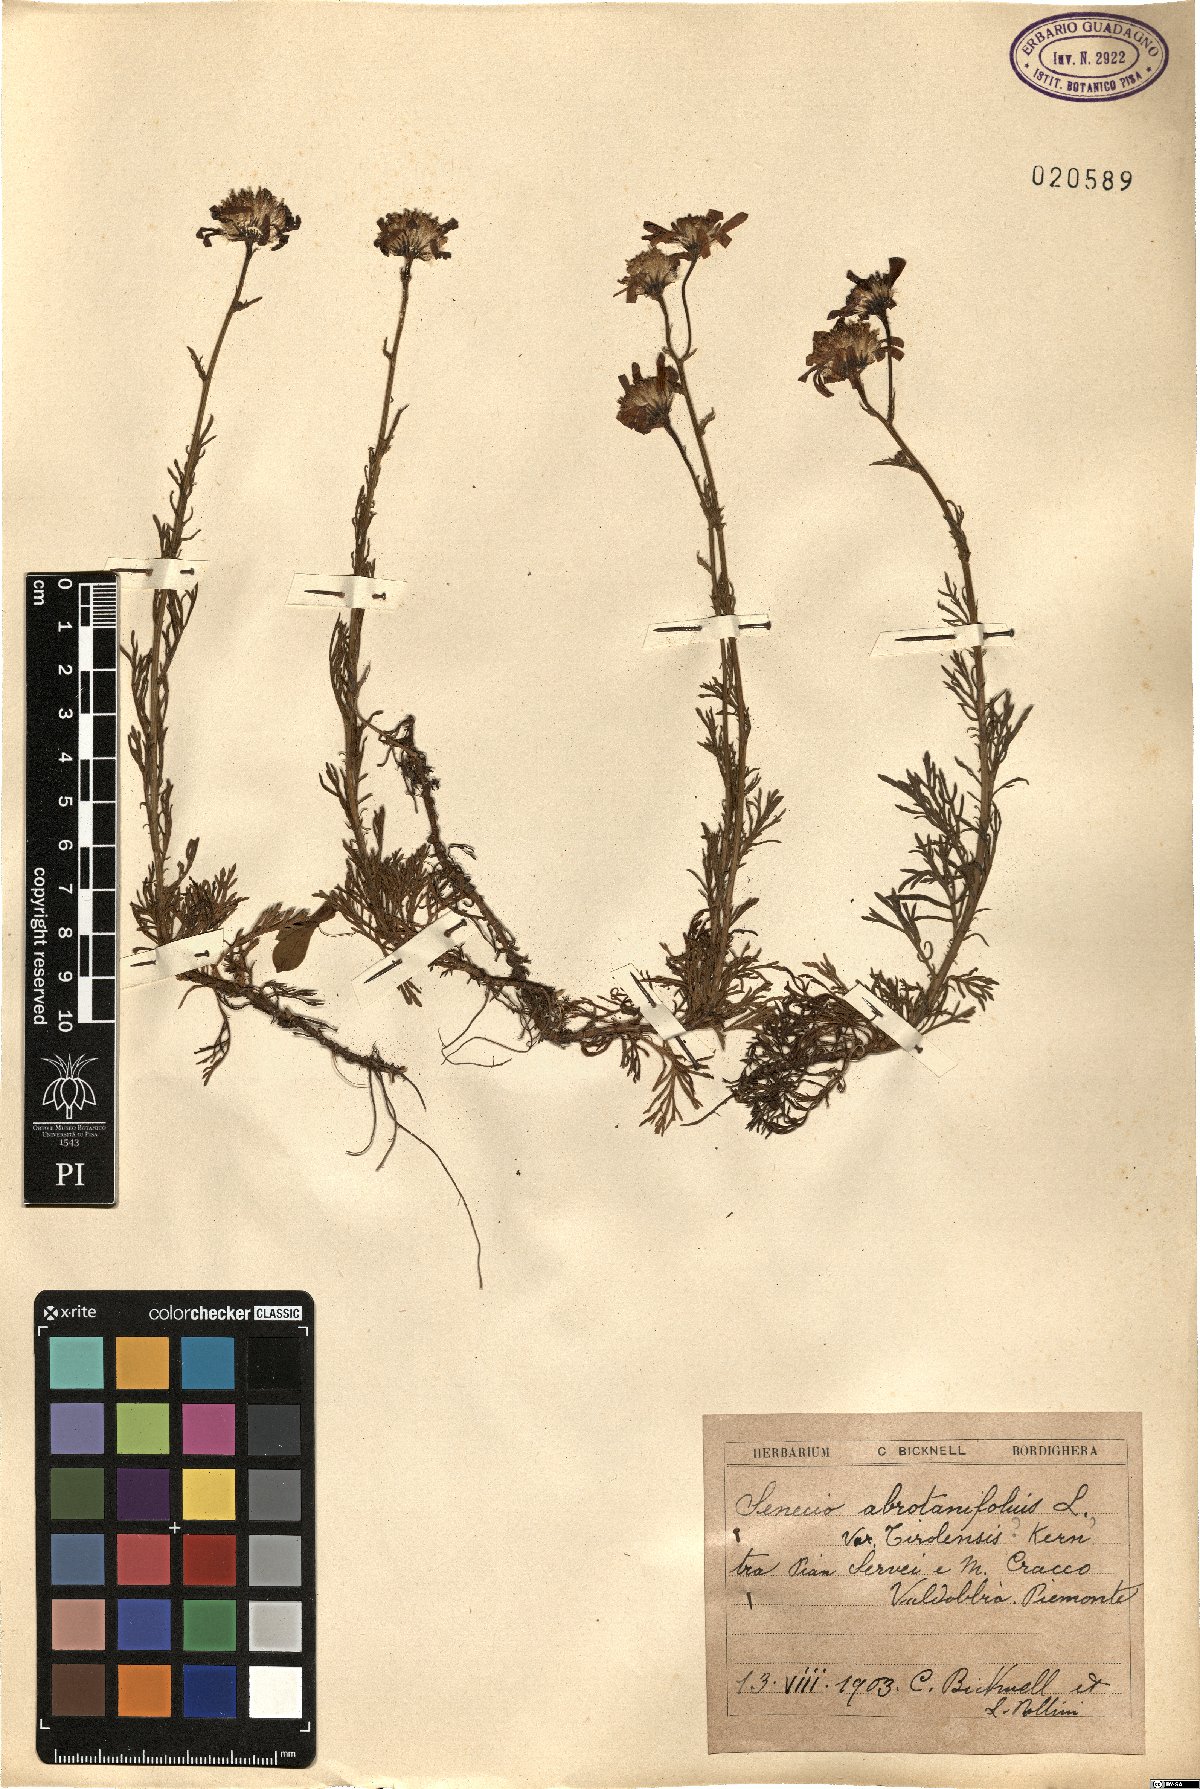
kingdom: Plantae
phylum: Tracheophyta
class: Magnoliopsida
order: Asterales
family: Asteraceae
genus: Senecio
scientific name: Senecio abrotanifolius
